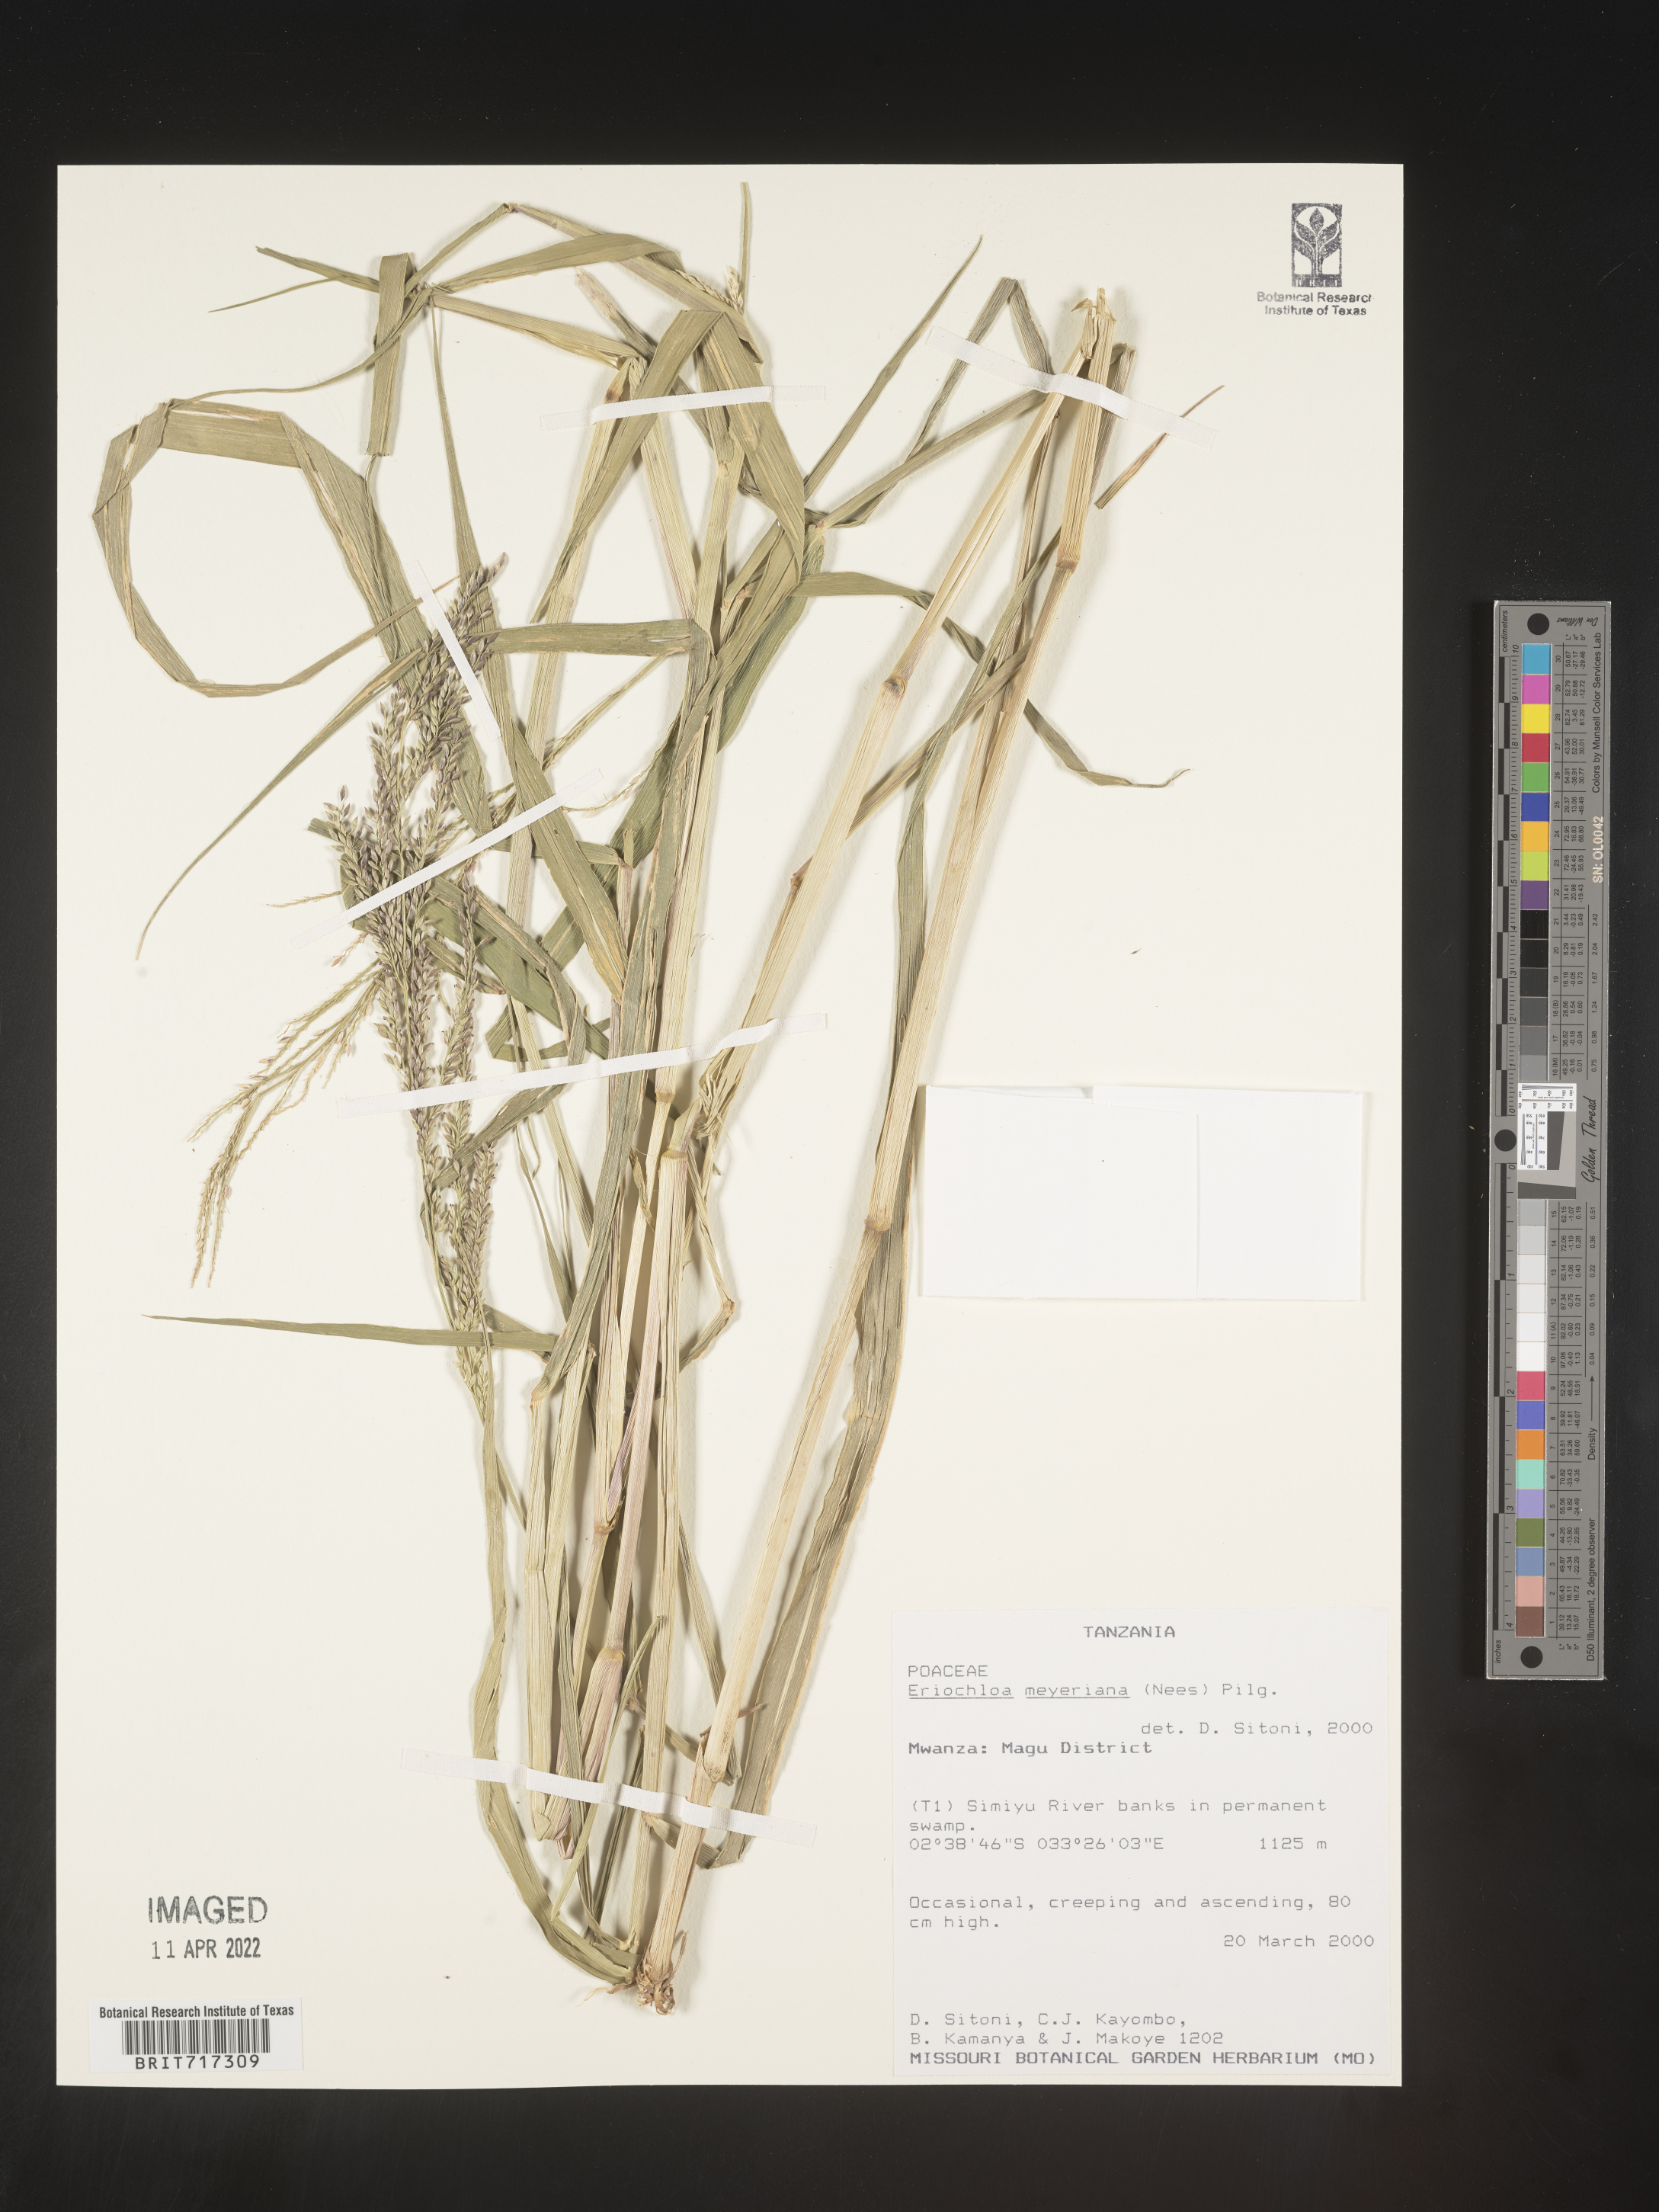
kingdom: Plantae
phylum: Tracheophyta
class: Liliopsida
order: Poales
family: Poaceae
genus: Eriochloa
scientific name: Eriochloa
